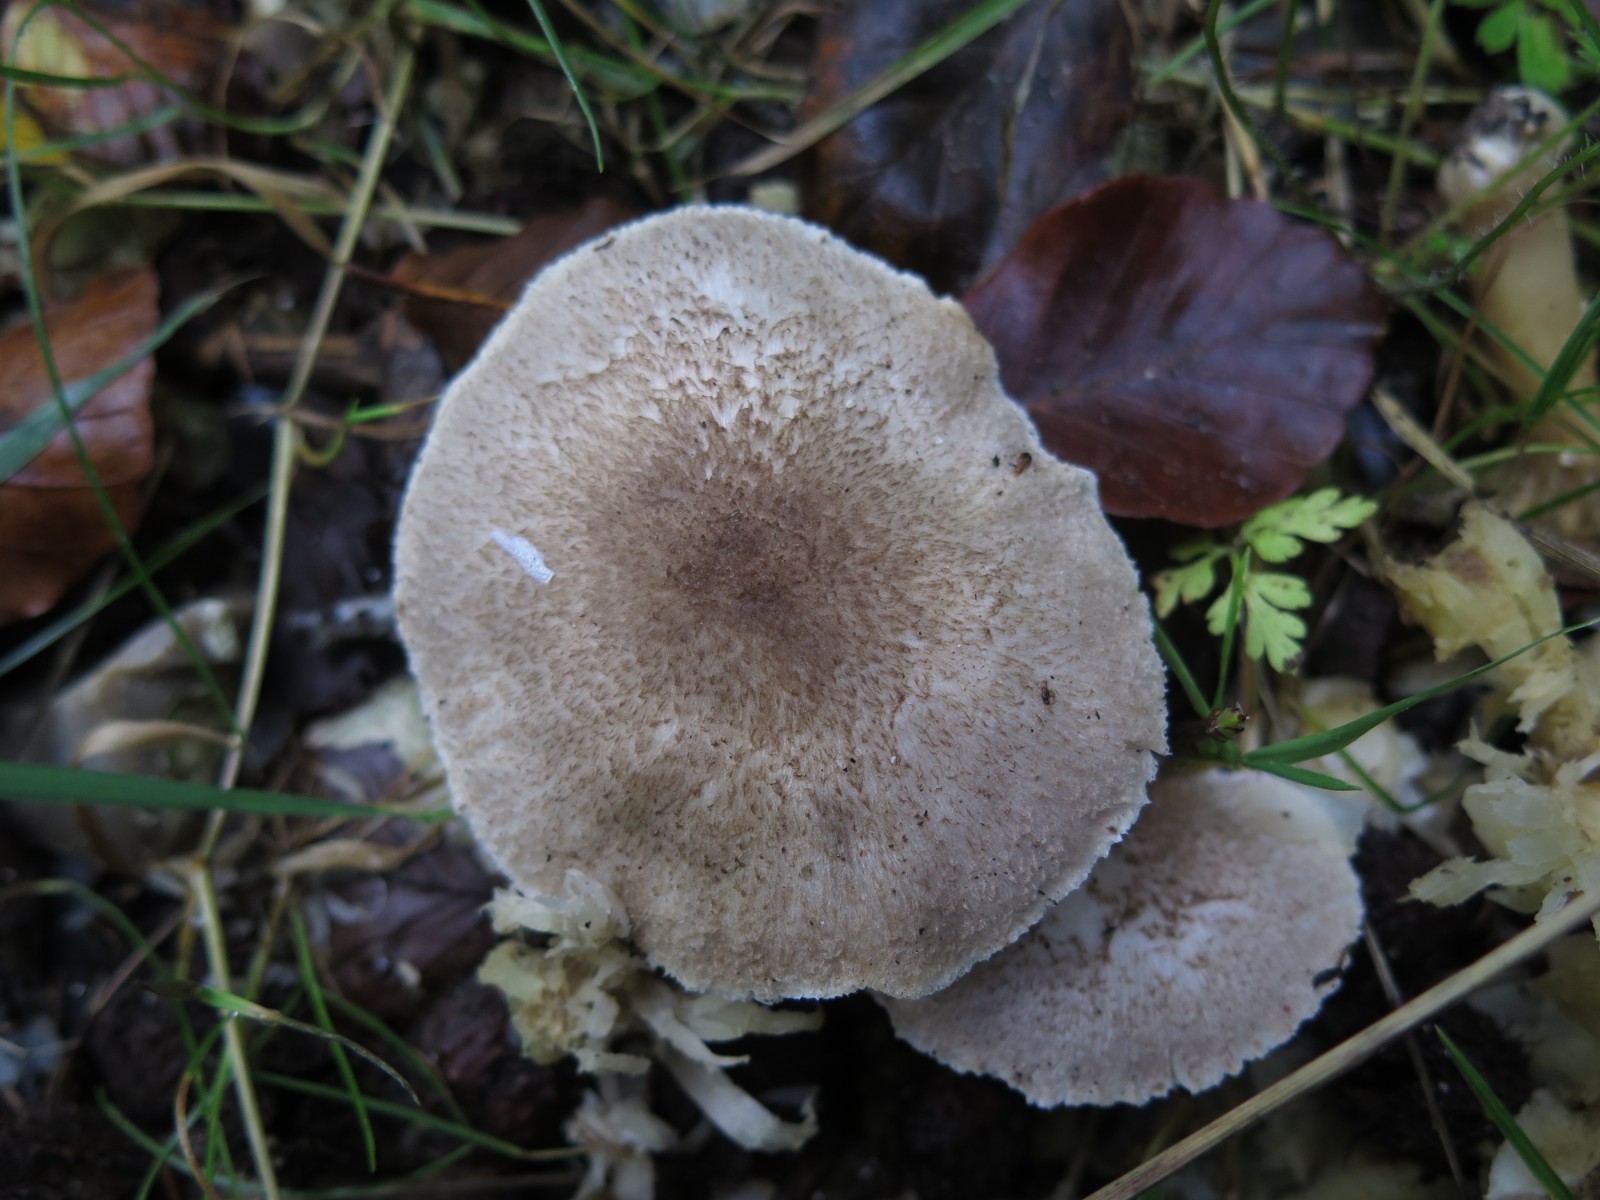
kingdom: Fungi
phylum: Basidiomycota
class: Agaricomycetes
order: Agaricales
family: Tricholomataceae
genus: Tricholoma
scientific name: Tricholoma scalpturatum
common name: gulplettet ridderhat
